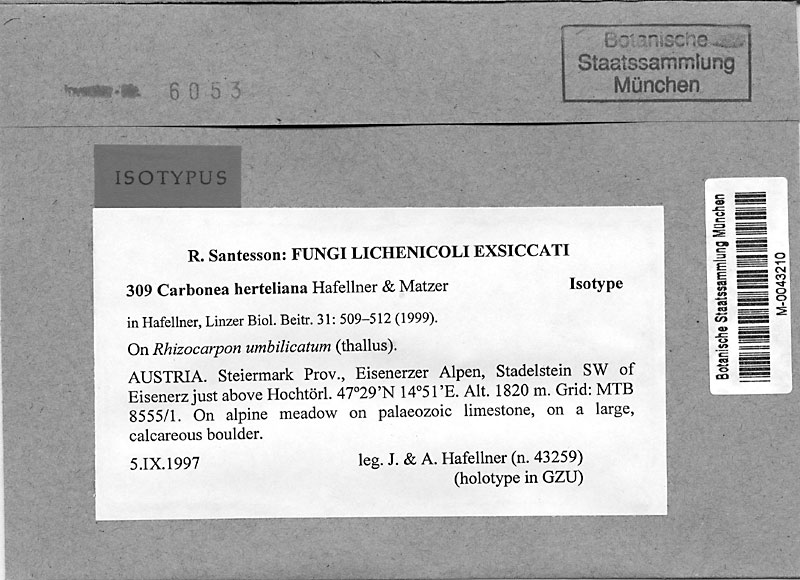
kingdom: Fungi
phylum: Ascomycota
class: Lecanoromycetes
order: Rhizocarpales
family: Rhizocarpaceae
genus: Rhizocarpon
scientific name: Rhizocarpon umbilicatum
